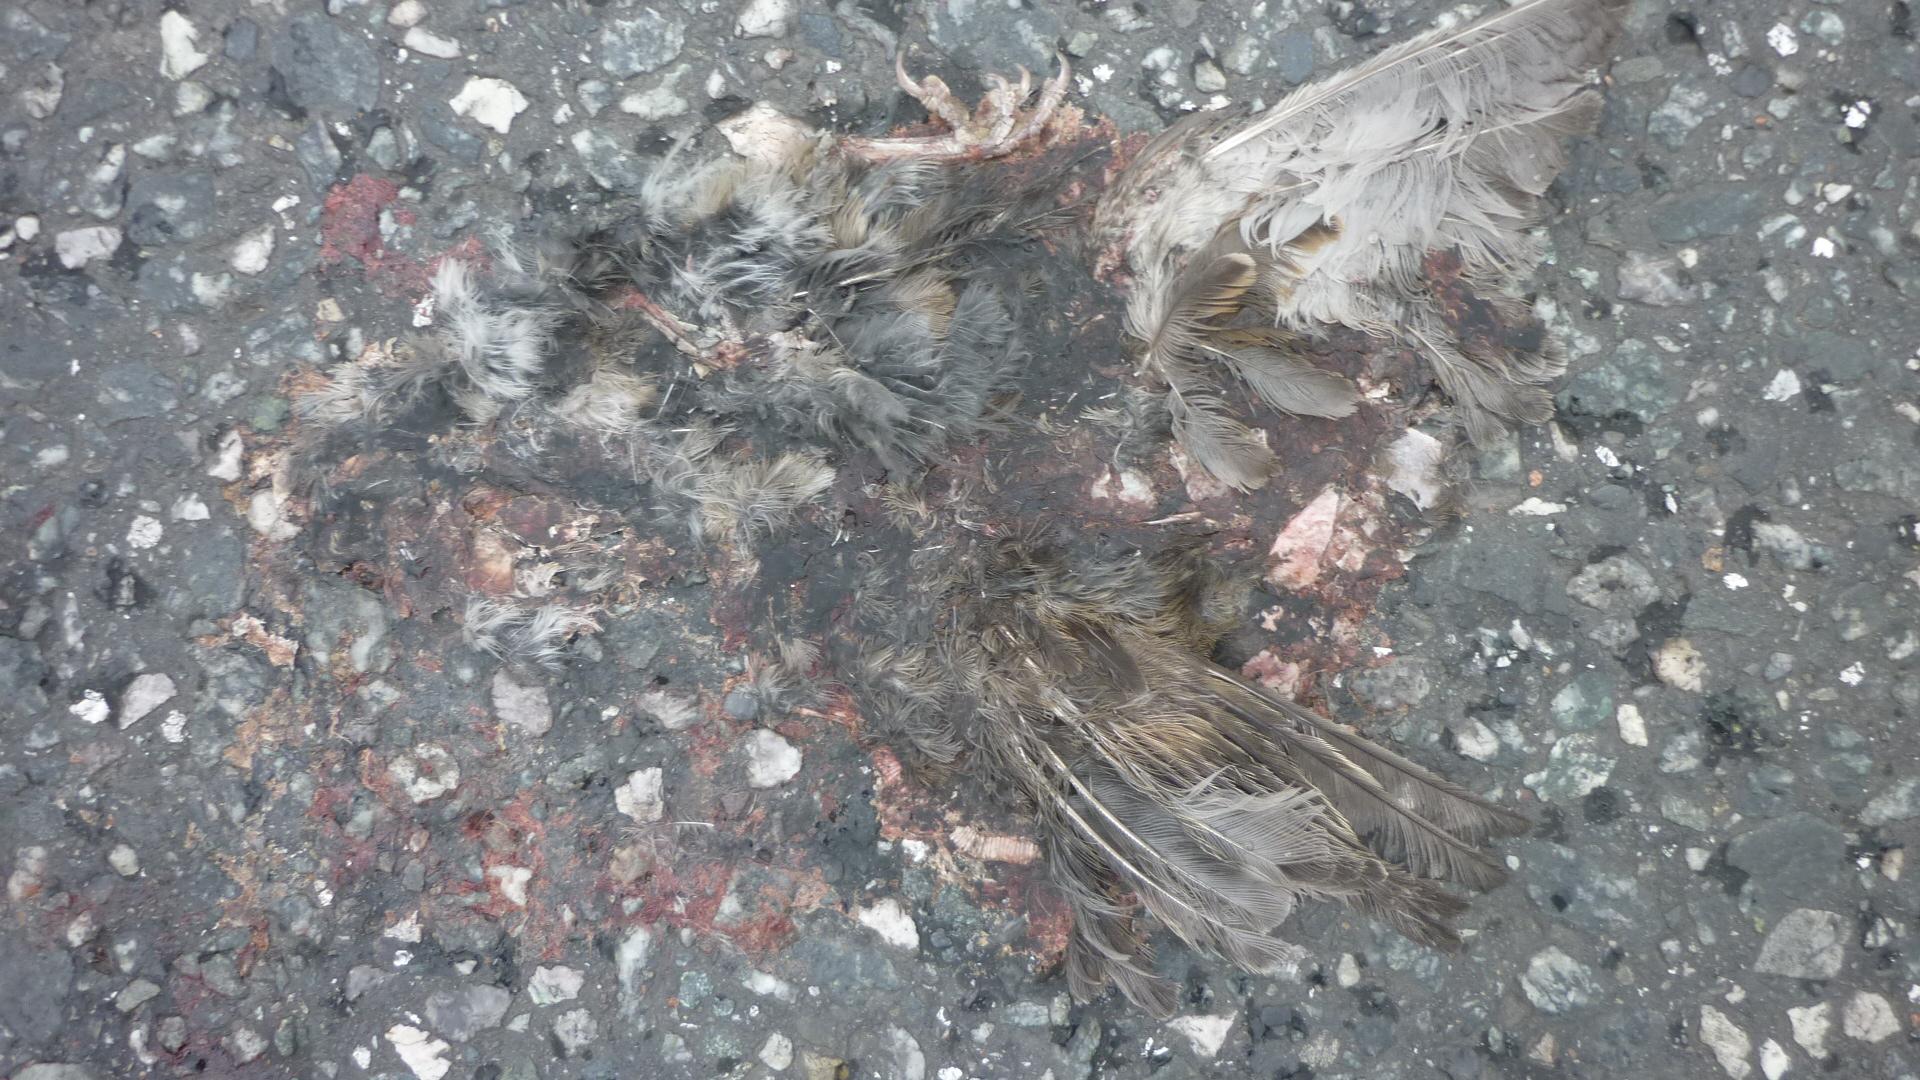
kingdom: Animalia
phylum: Chordata
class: Aves
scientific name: Aves
